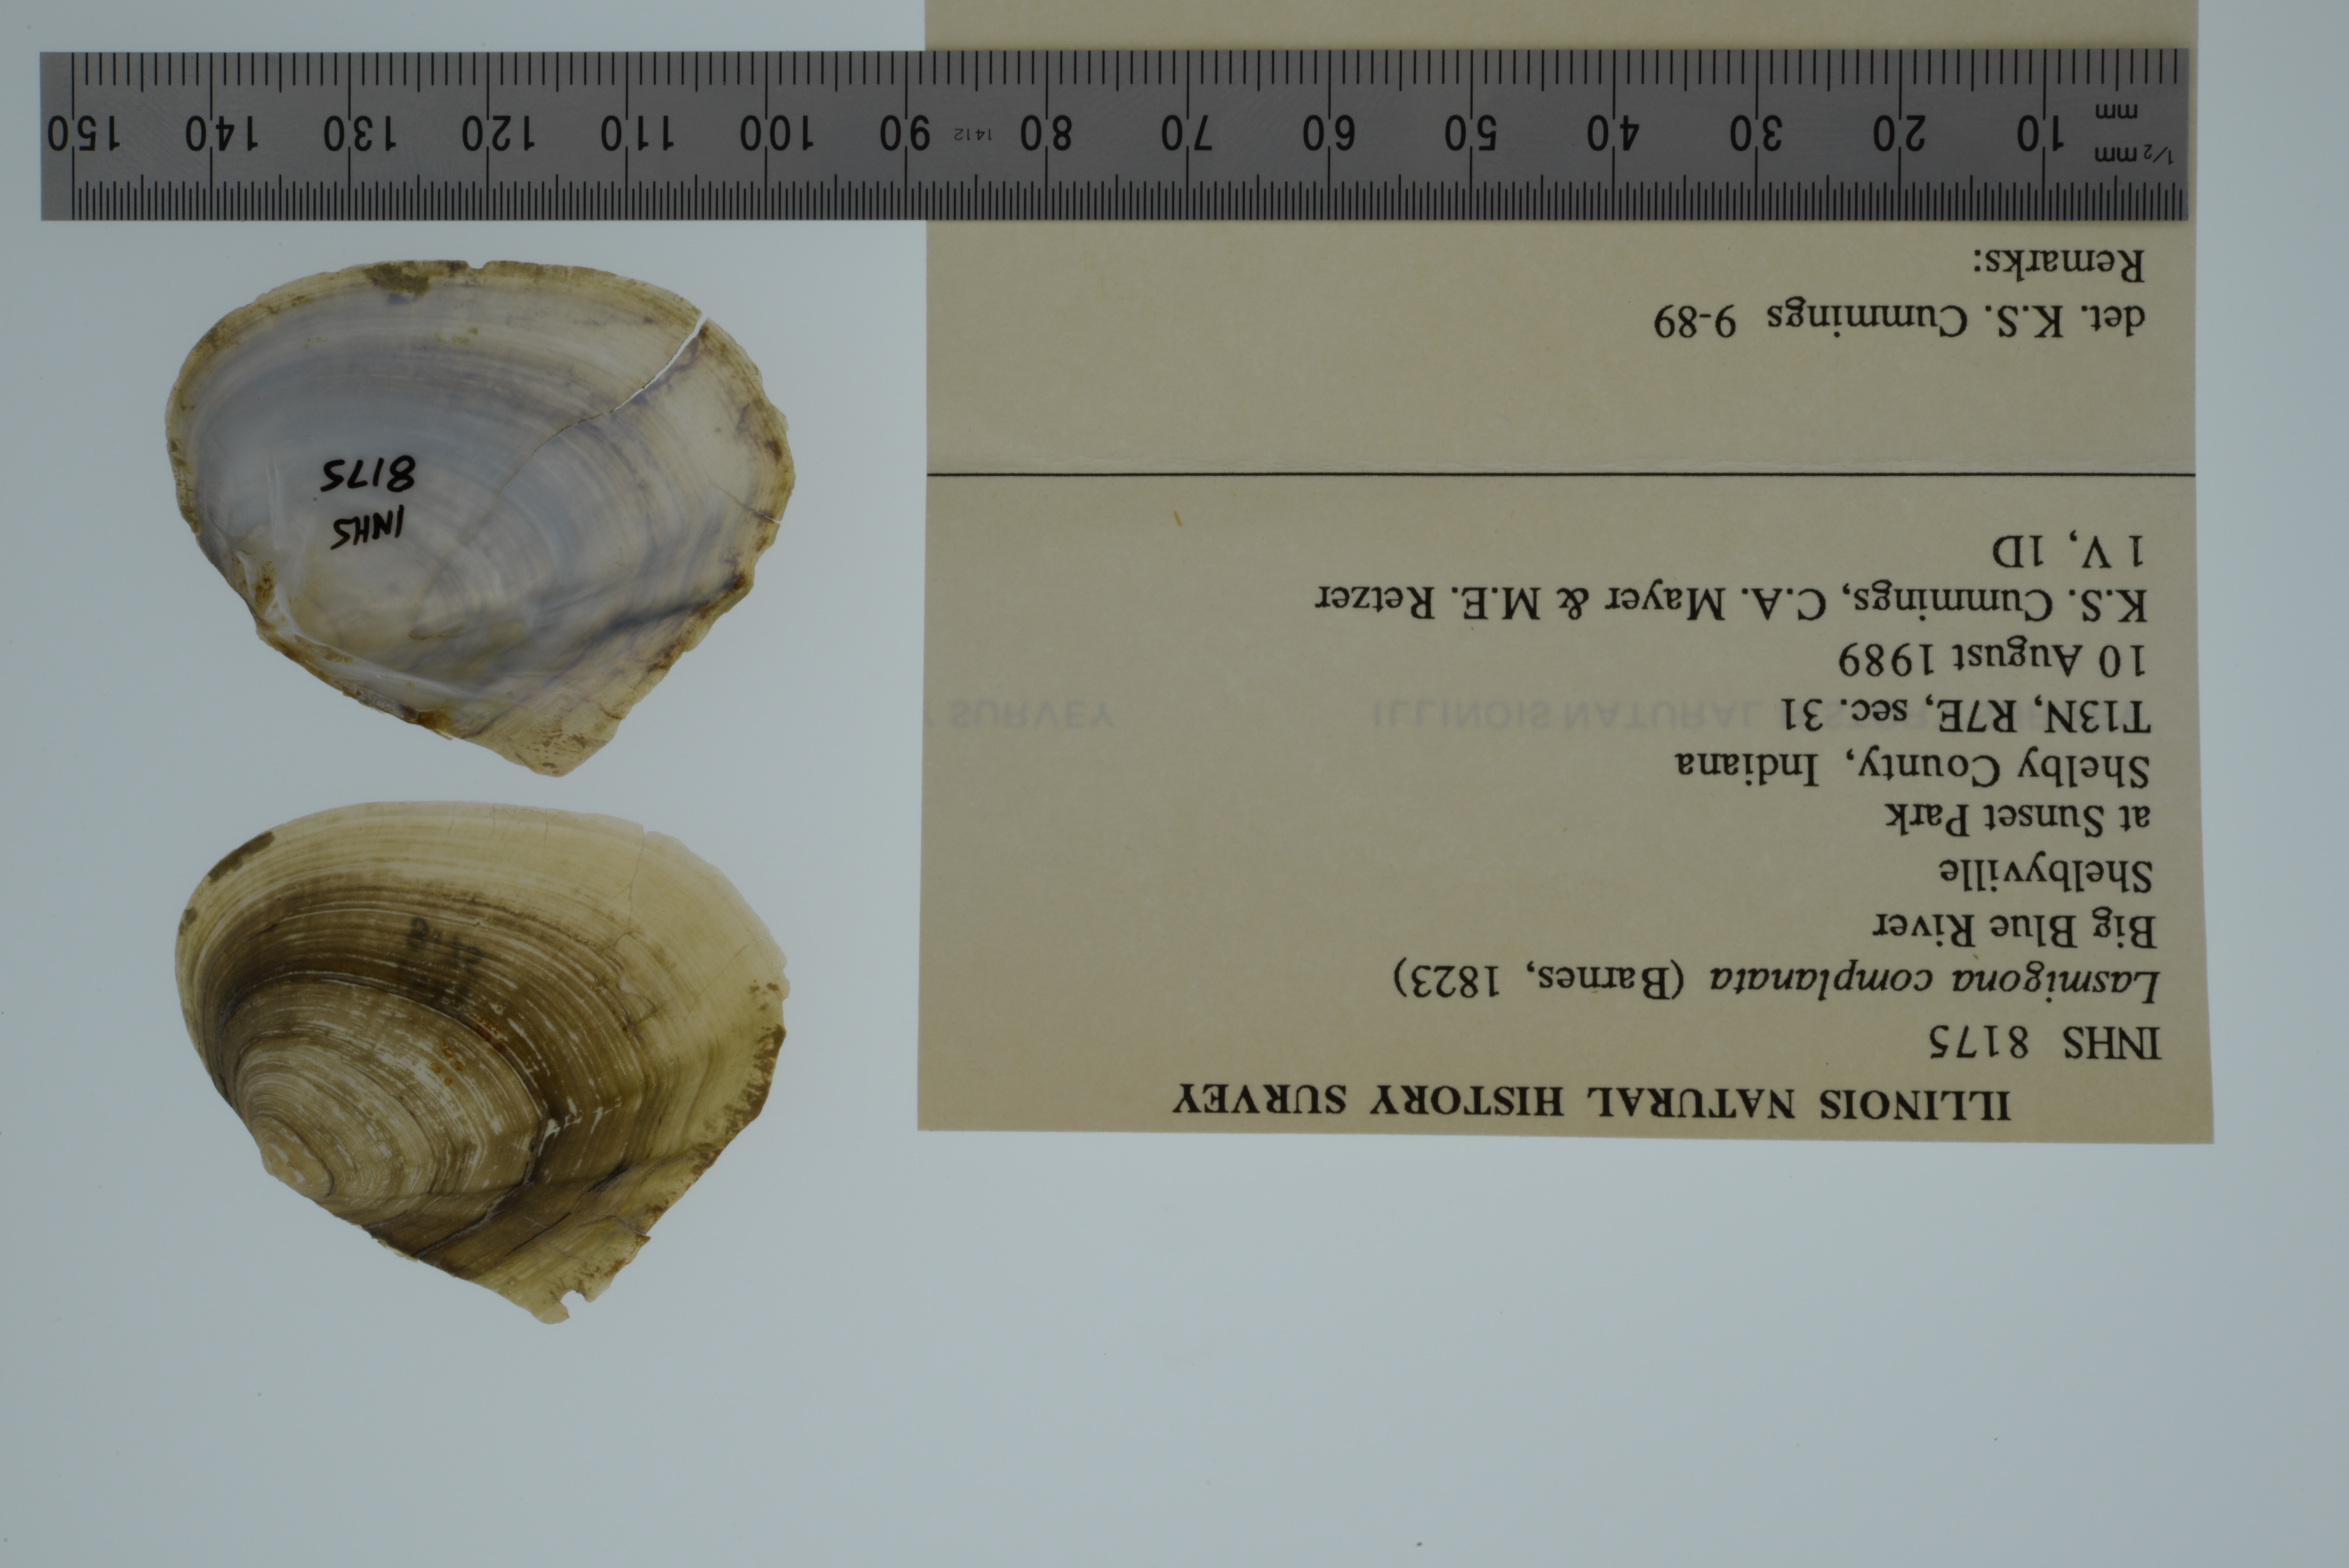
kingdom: Animalia
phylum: Mollusca
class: Bivalvia
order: Unionida
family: Unionidae
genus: Lasmigona
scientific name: Lasmigona complanata
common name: White heelsplitter
